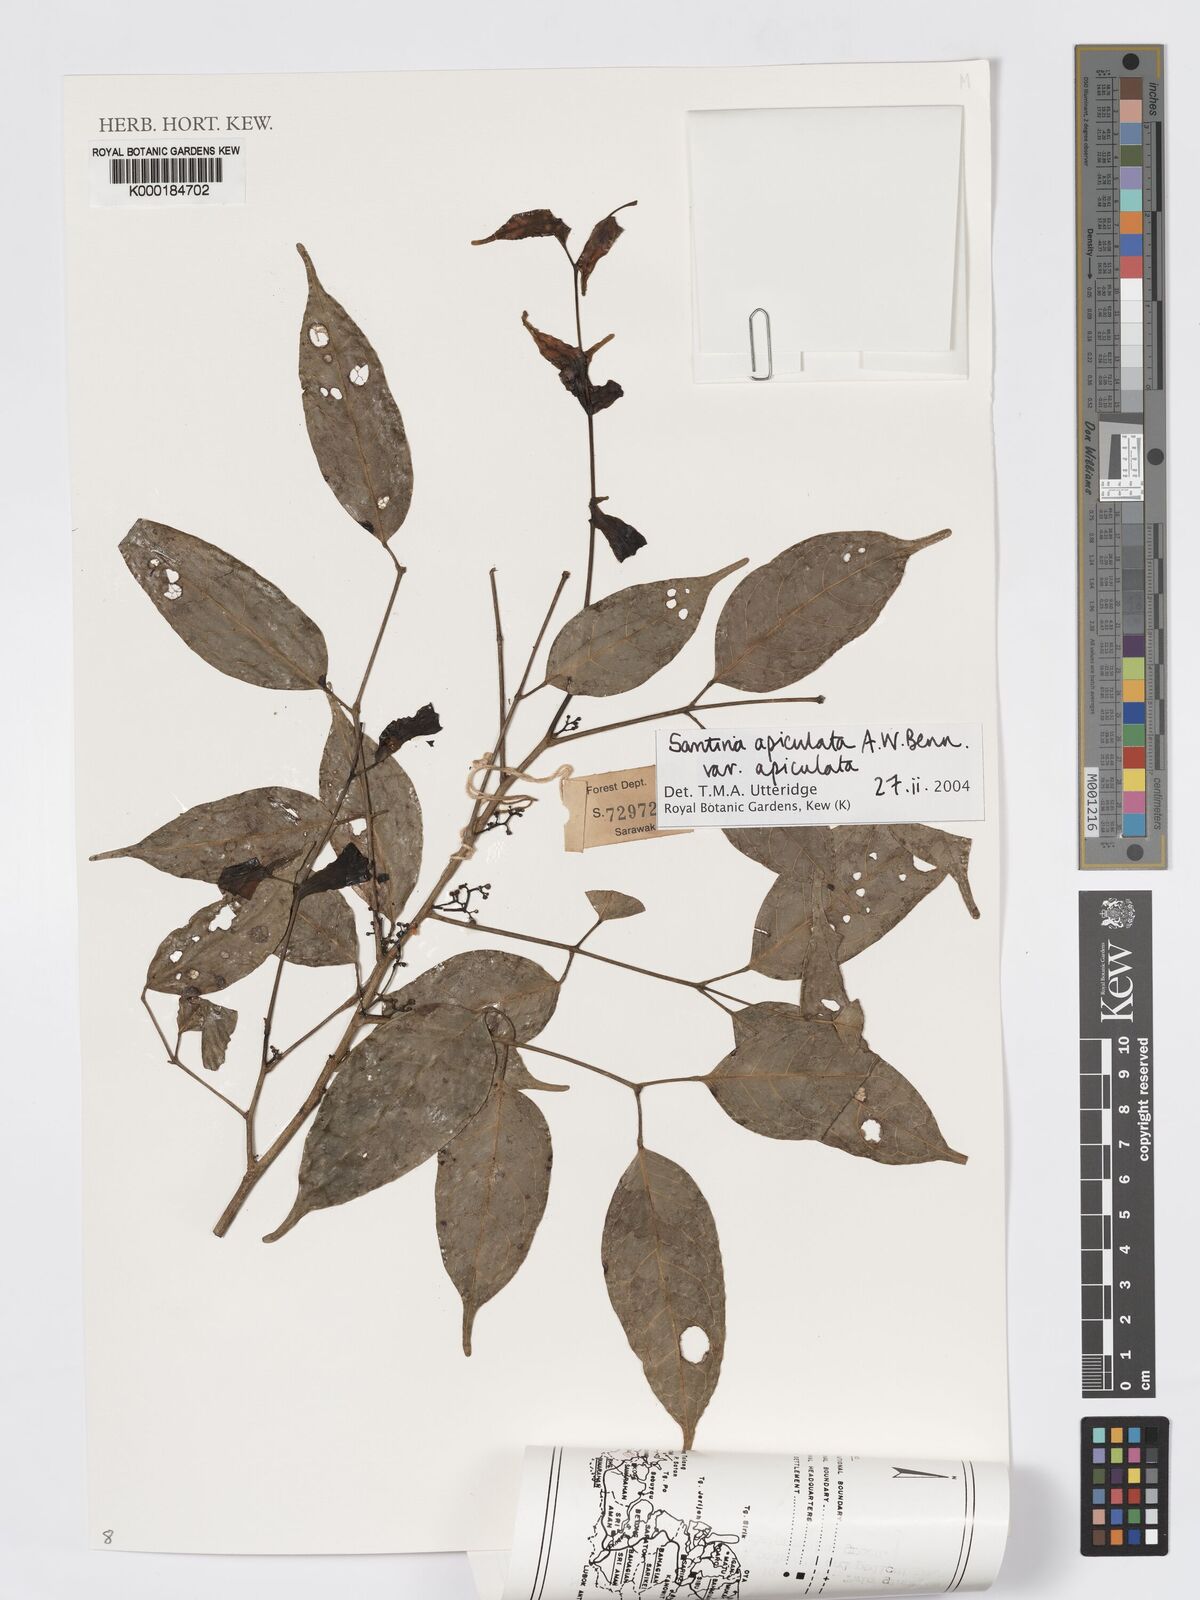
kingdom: Plantae
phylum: Tracheophyta
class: Magnoliopsida
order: Sapindales
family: Burseraceae
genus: Santiria
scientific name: Santiria apiculata
